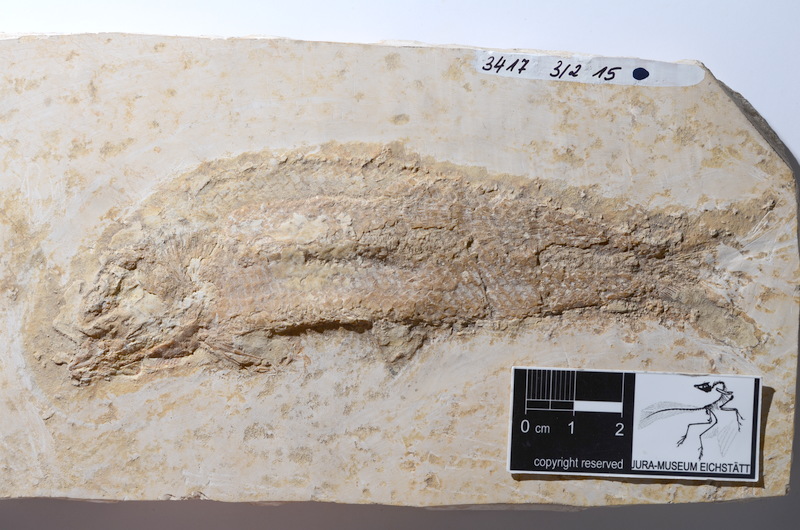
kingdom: Animalia
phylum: Chordata
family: Ankylophoridae
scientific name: Ankylophoridae
